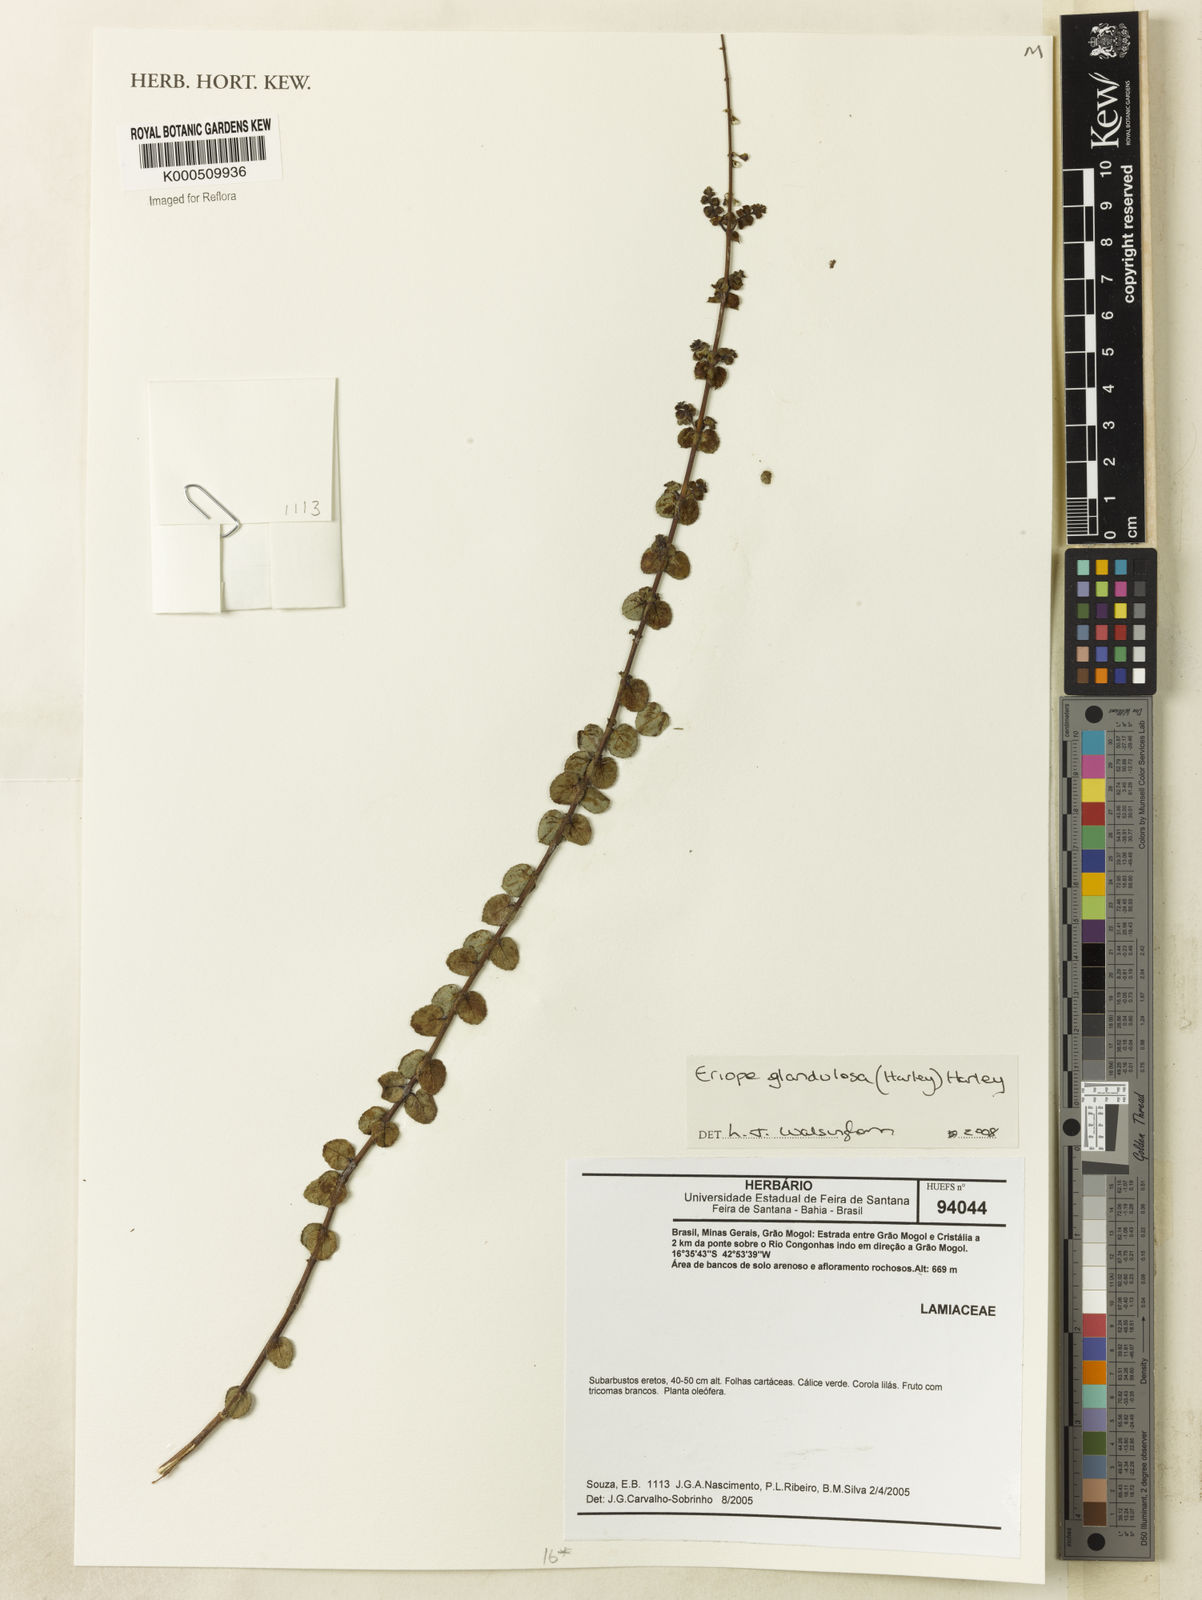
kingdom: Plantae
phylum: Tracheophyta
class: Magnoliopsida
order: Lamiales
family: Lamiaceae
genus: Eriope
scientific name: Eriope glandulosa
